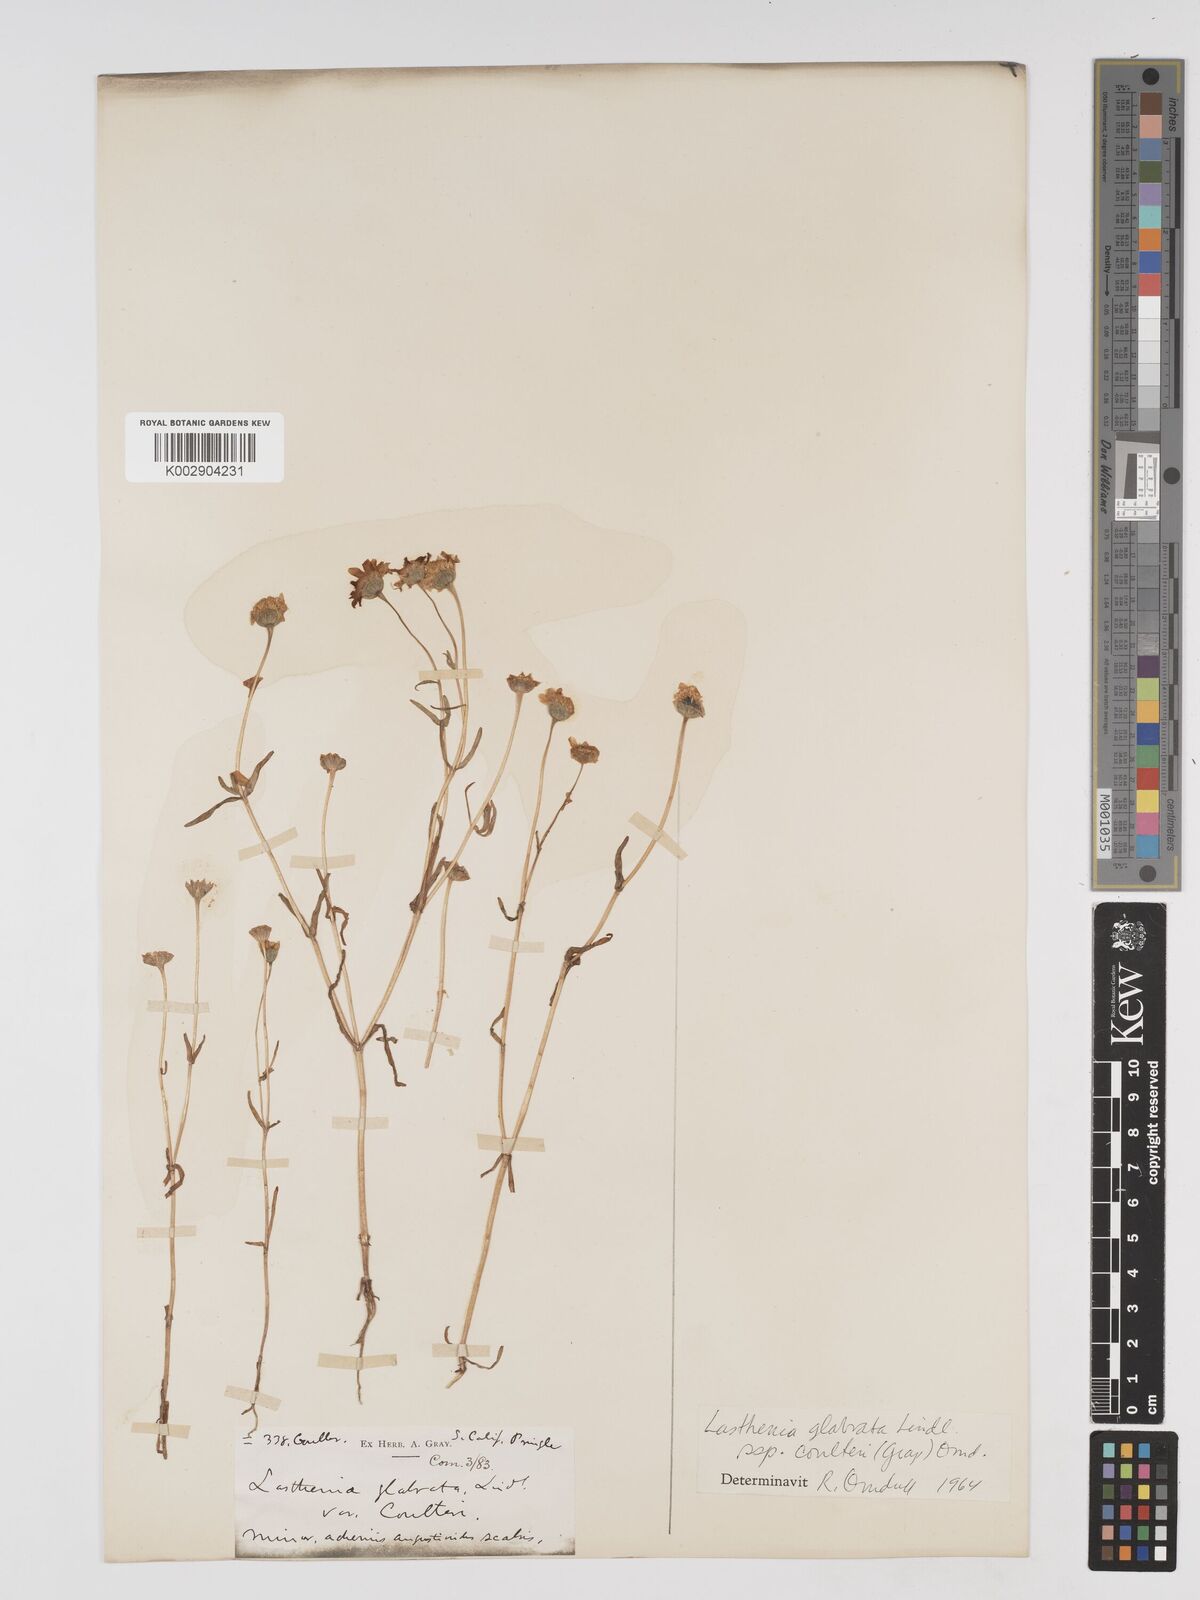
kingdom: Plantae
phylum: Tracheophyta
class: Magnoliopsida
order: Asterales
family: Asteraceae
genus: Lasthenia
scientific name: Lasthenia glabrata
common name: Yellow-ray lasthenia
